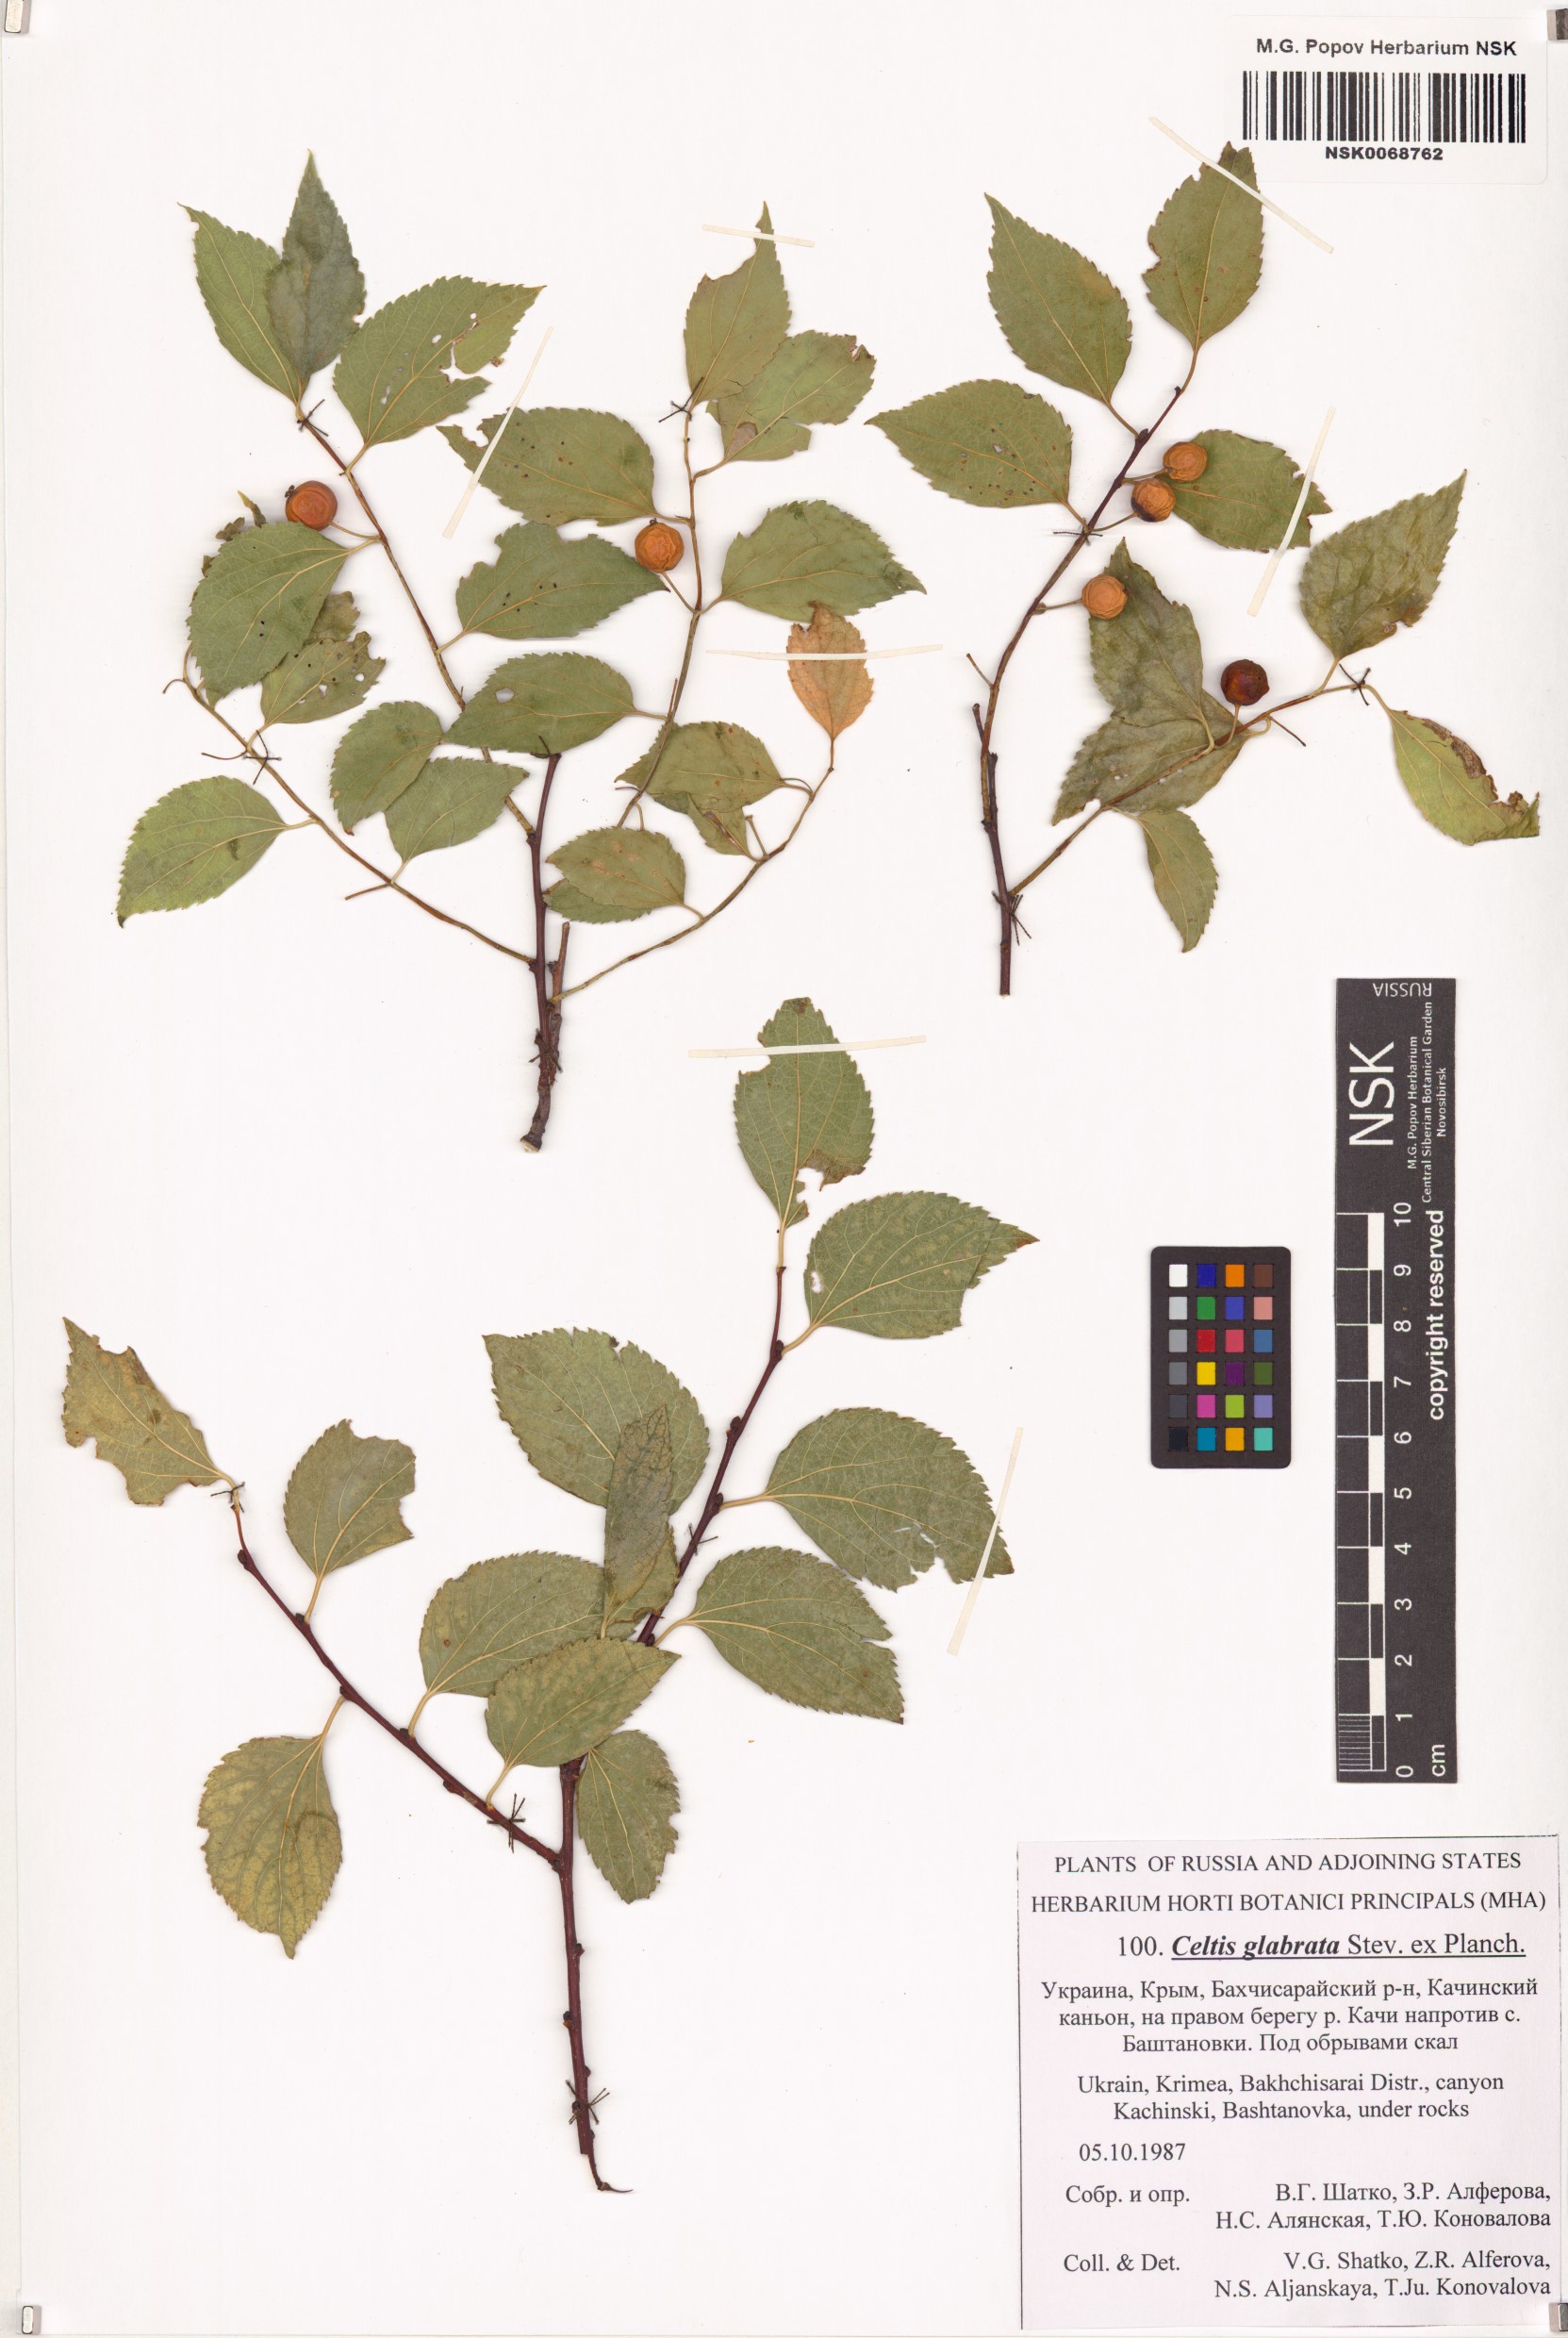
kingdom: Plantae
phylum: Tracheophyta
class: Magnoliopsida
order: Rosales
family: Cannabaceae
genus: Celtis
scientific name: Celtis glabrata
